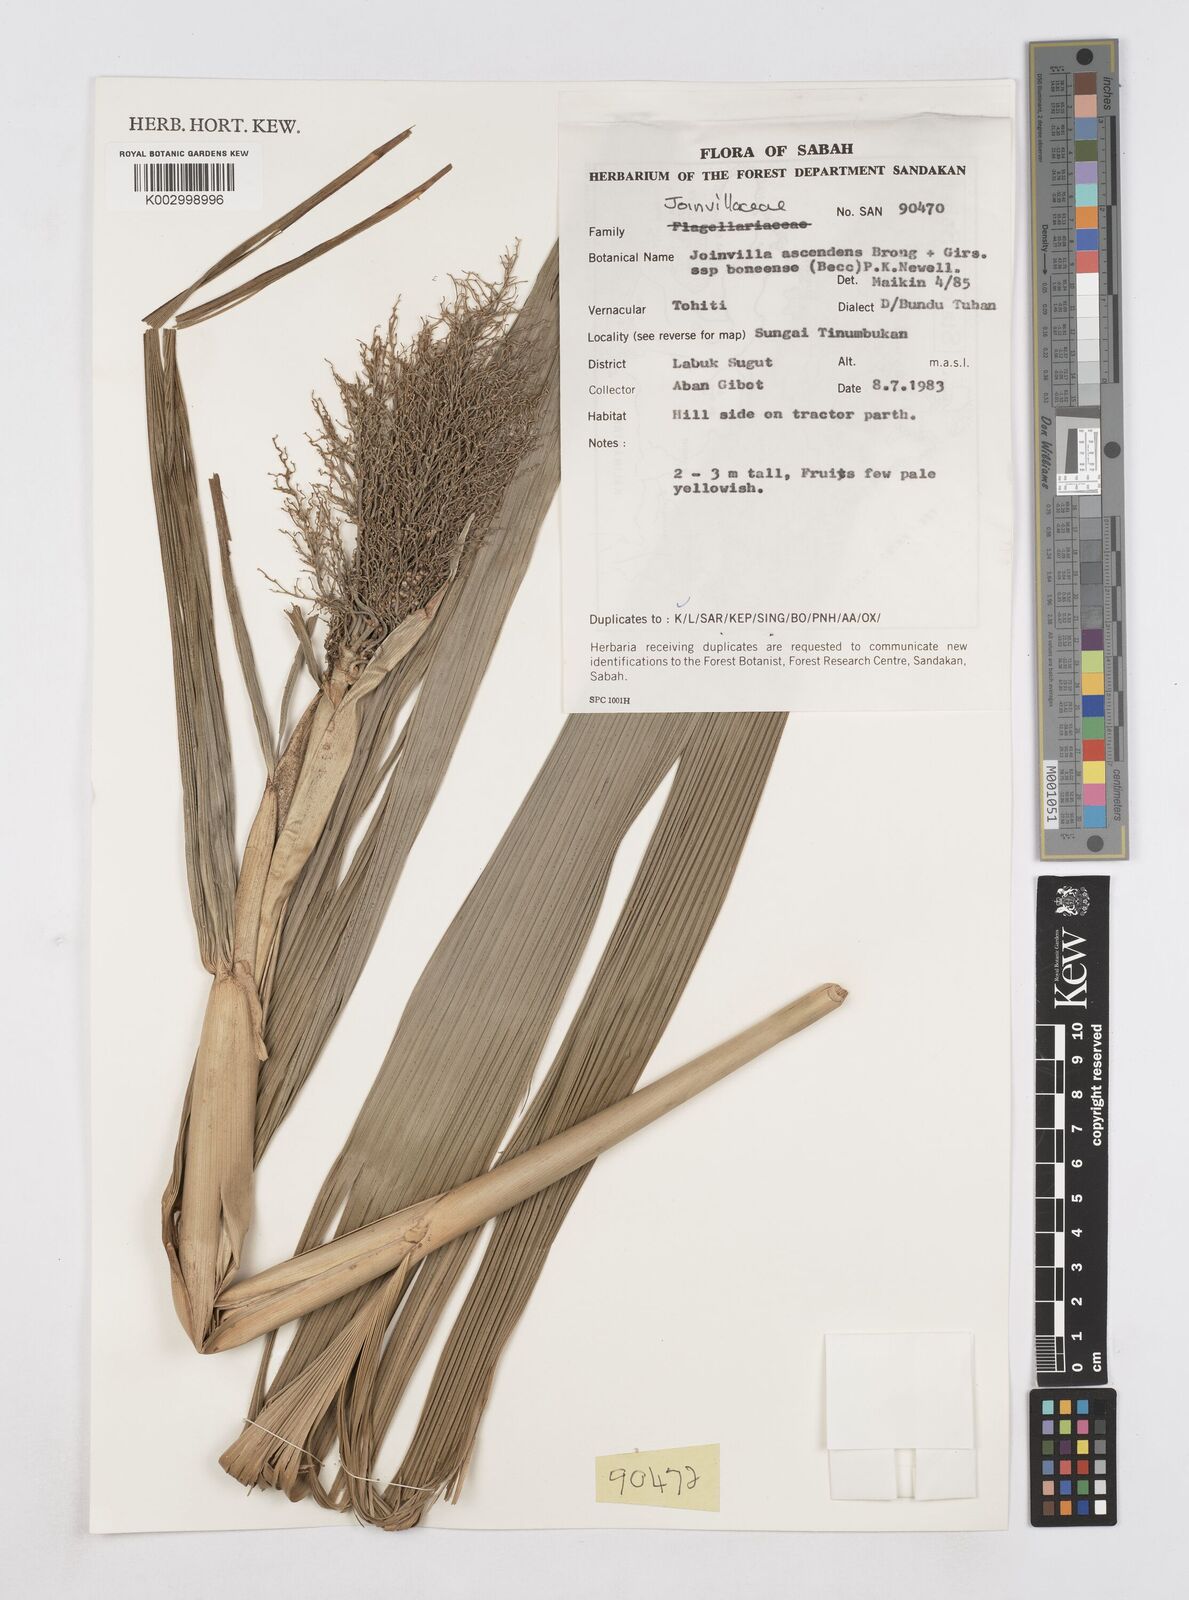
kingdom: Plantae
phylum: Tracheophyta
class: Liliopsida
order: Poales
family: Joinvilleaceae
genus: Joinvillea
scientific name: Joinvillea borneensis
